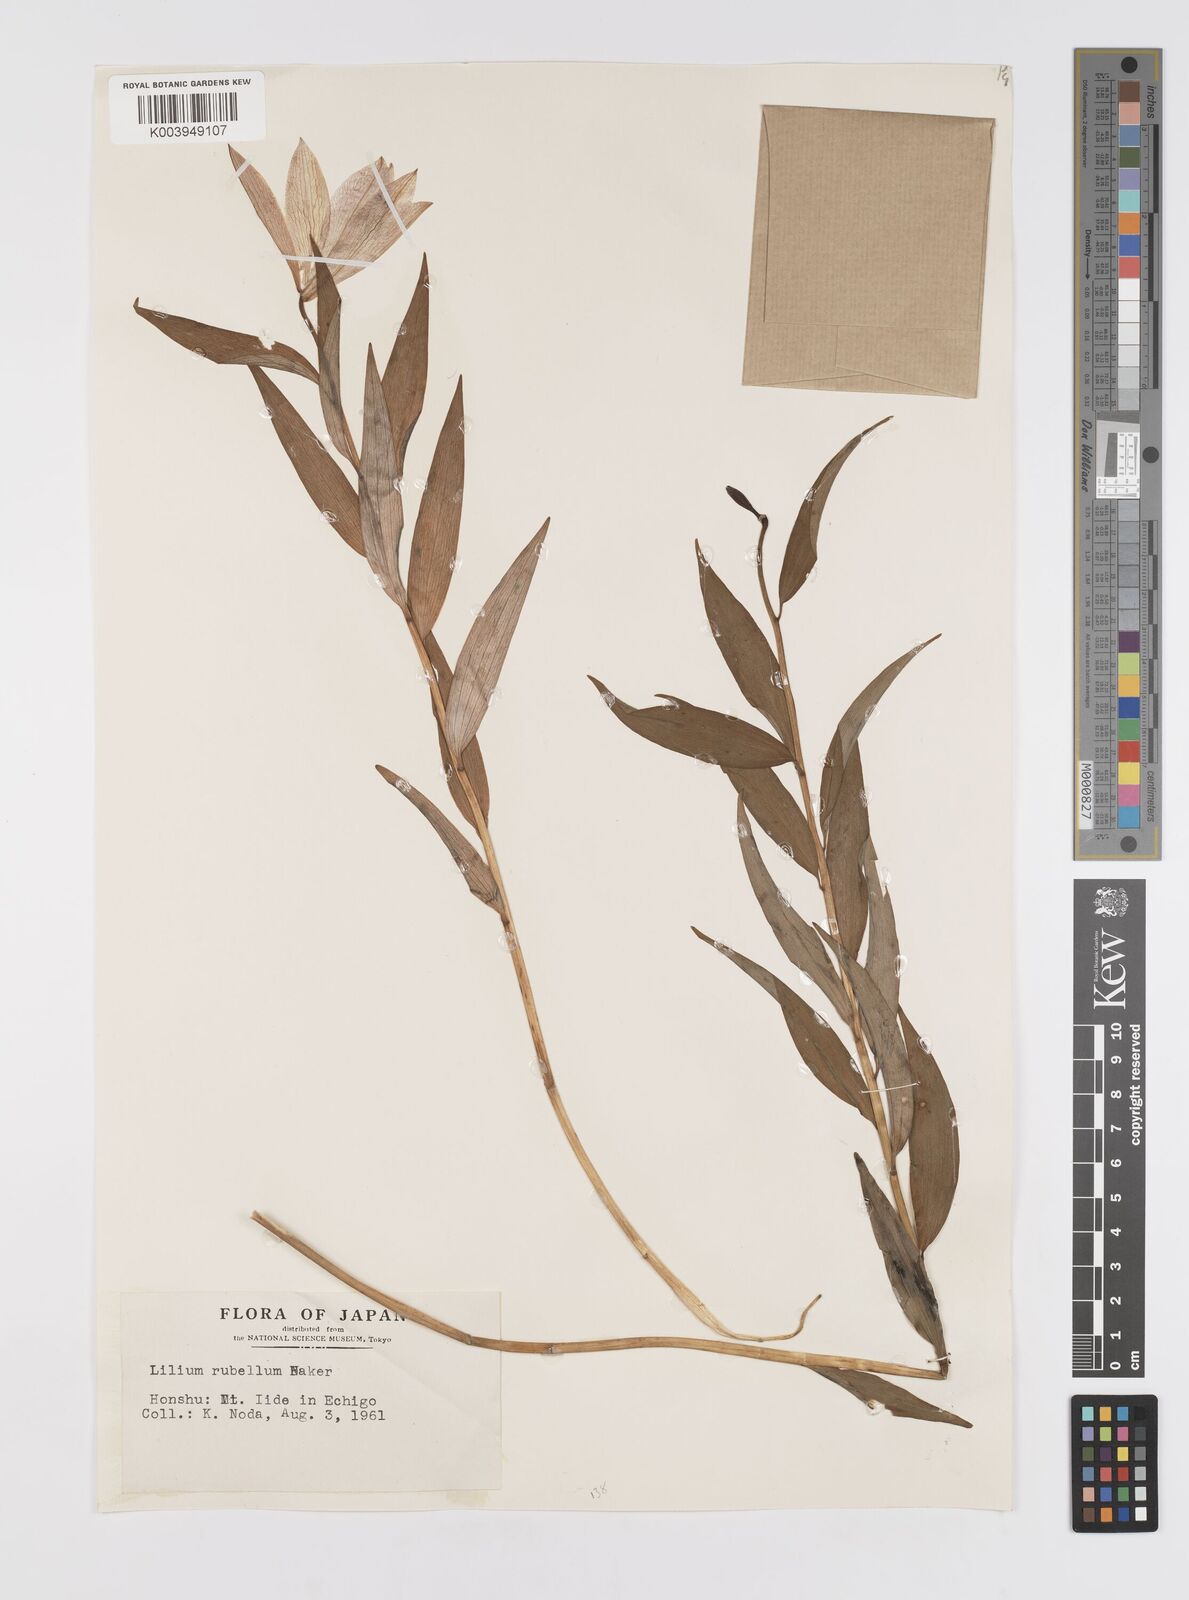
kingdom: Plantae
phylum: Tracheophyta
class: Liliopsida
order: Liliales
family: Liliaceae
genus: Lilium
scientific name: Lilium rubellum
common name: Rubellum lily
